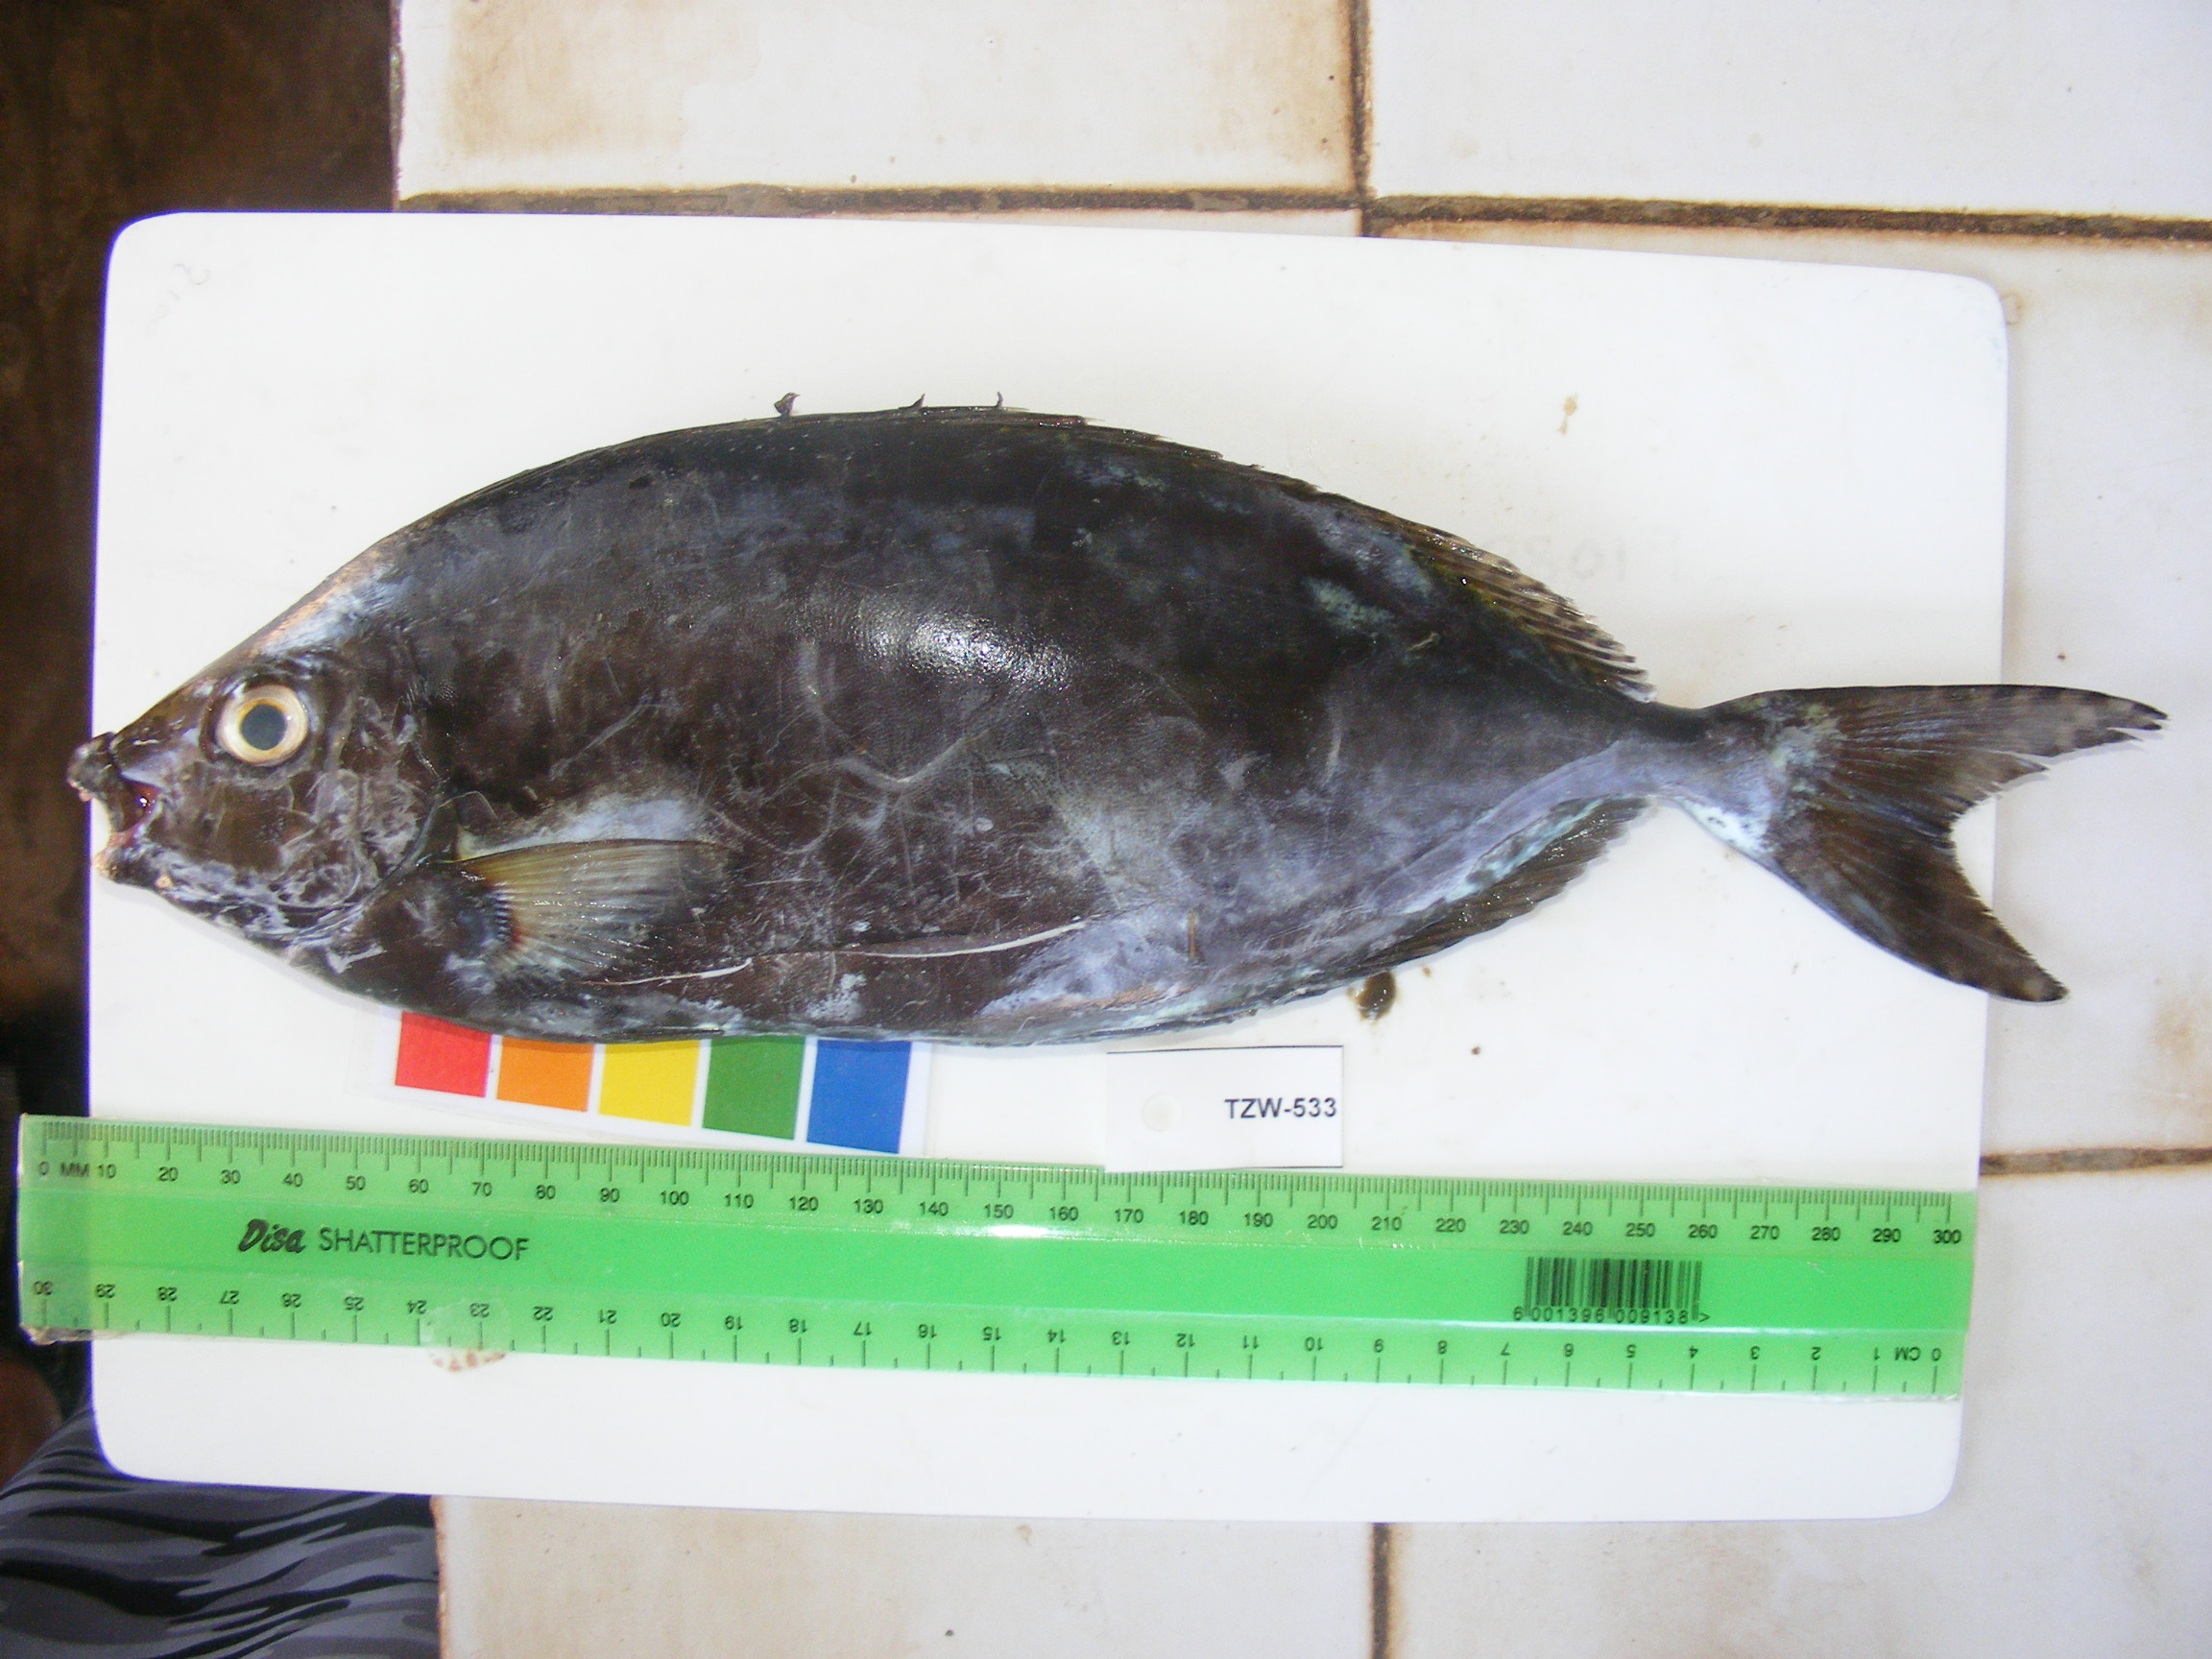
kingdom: Animalia
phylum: Chordata
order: Perciformes
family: Siganidae
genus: Siganus
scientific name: Siganus sutor
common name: Shoemaker spinefoot
